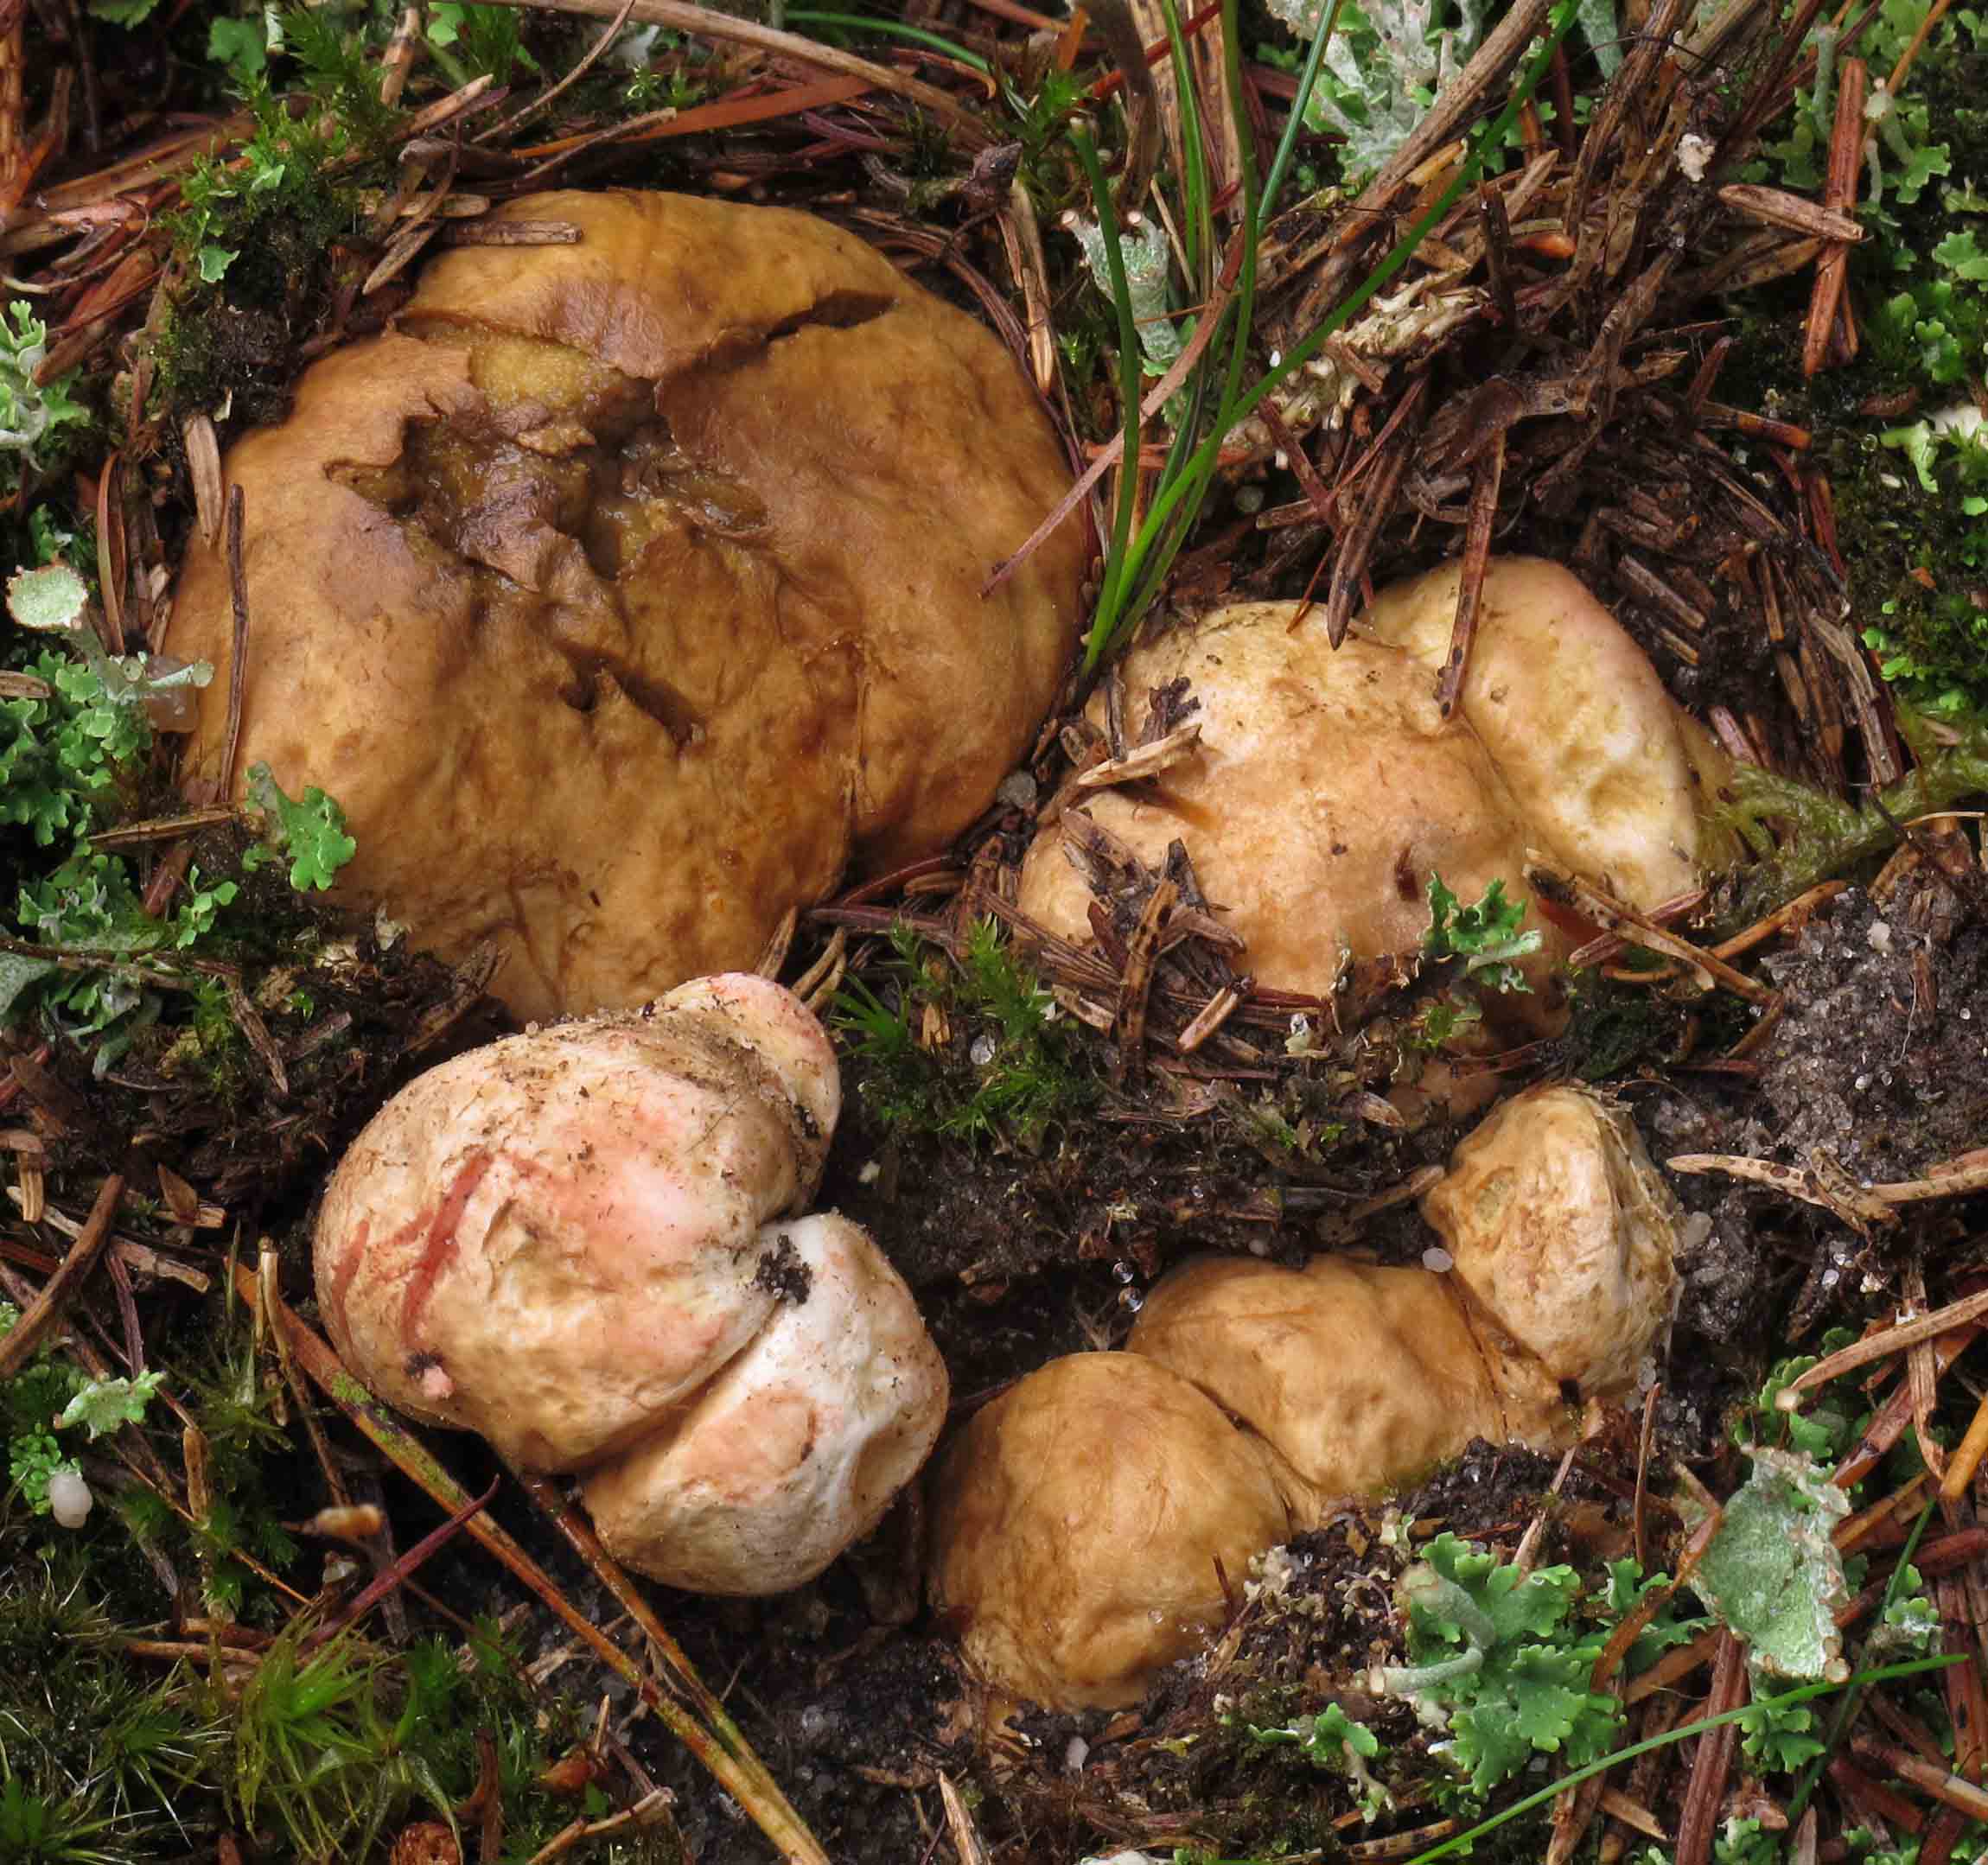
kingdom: Fungi
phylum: Basidiomycota
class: Agaricomycetes
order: Boletales
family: Rhizopogonaceae
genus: Rhizopogon
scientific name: Rhizopogon roseolus
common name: rødlig skægtrøffel
